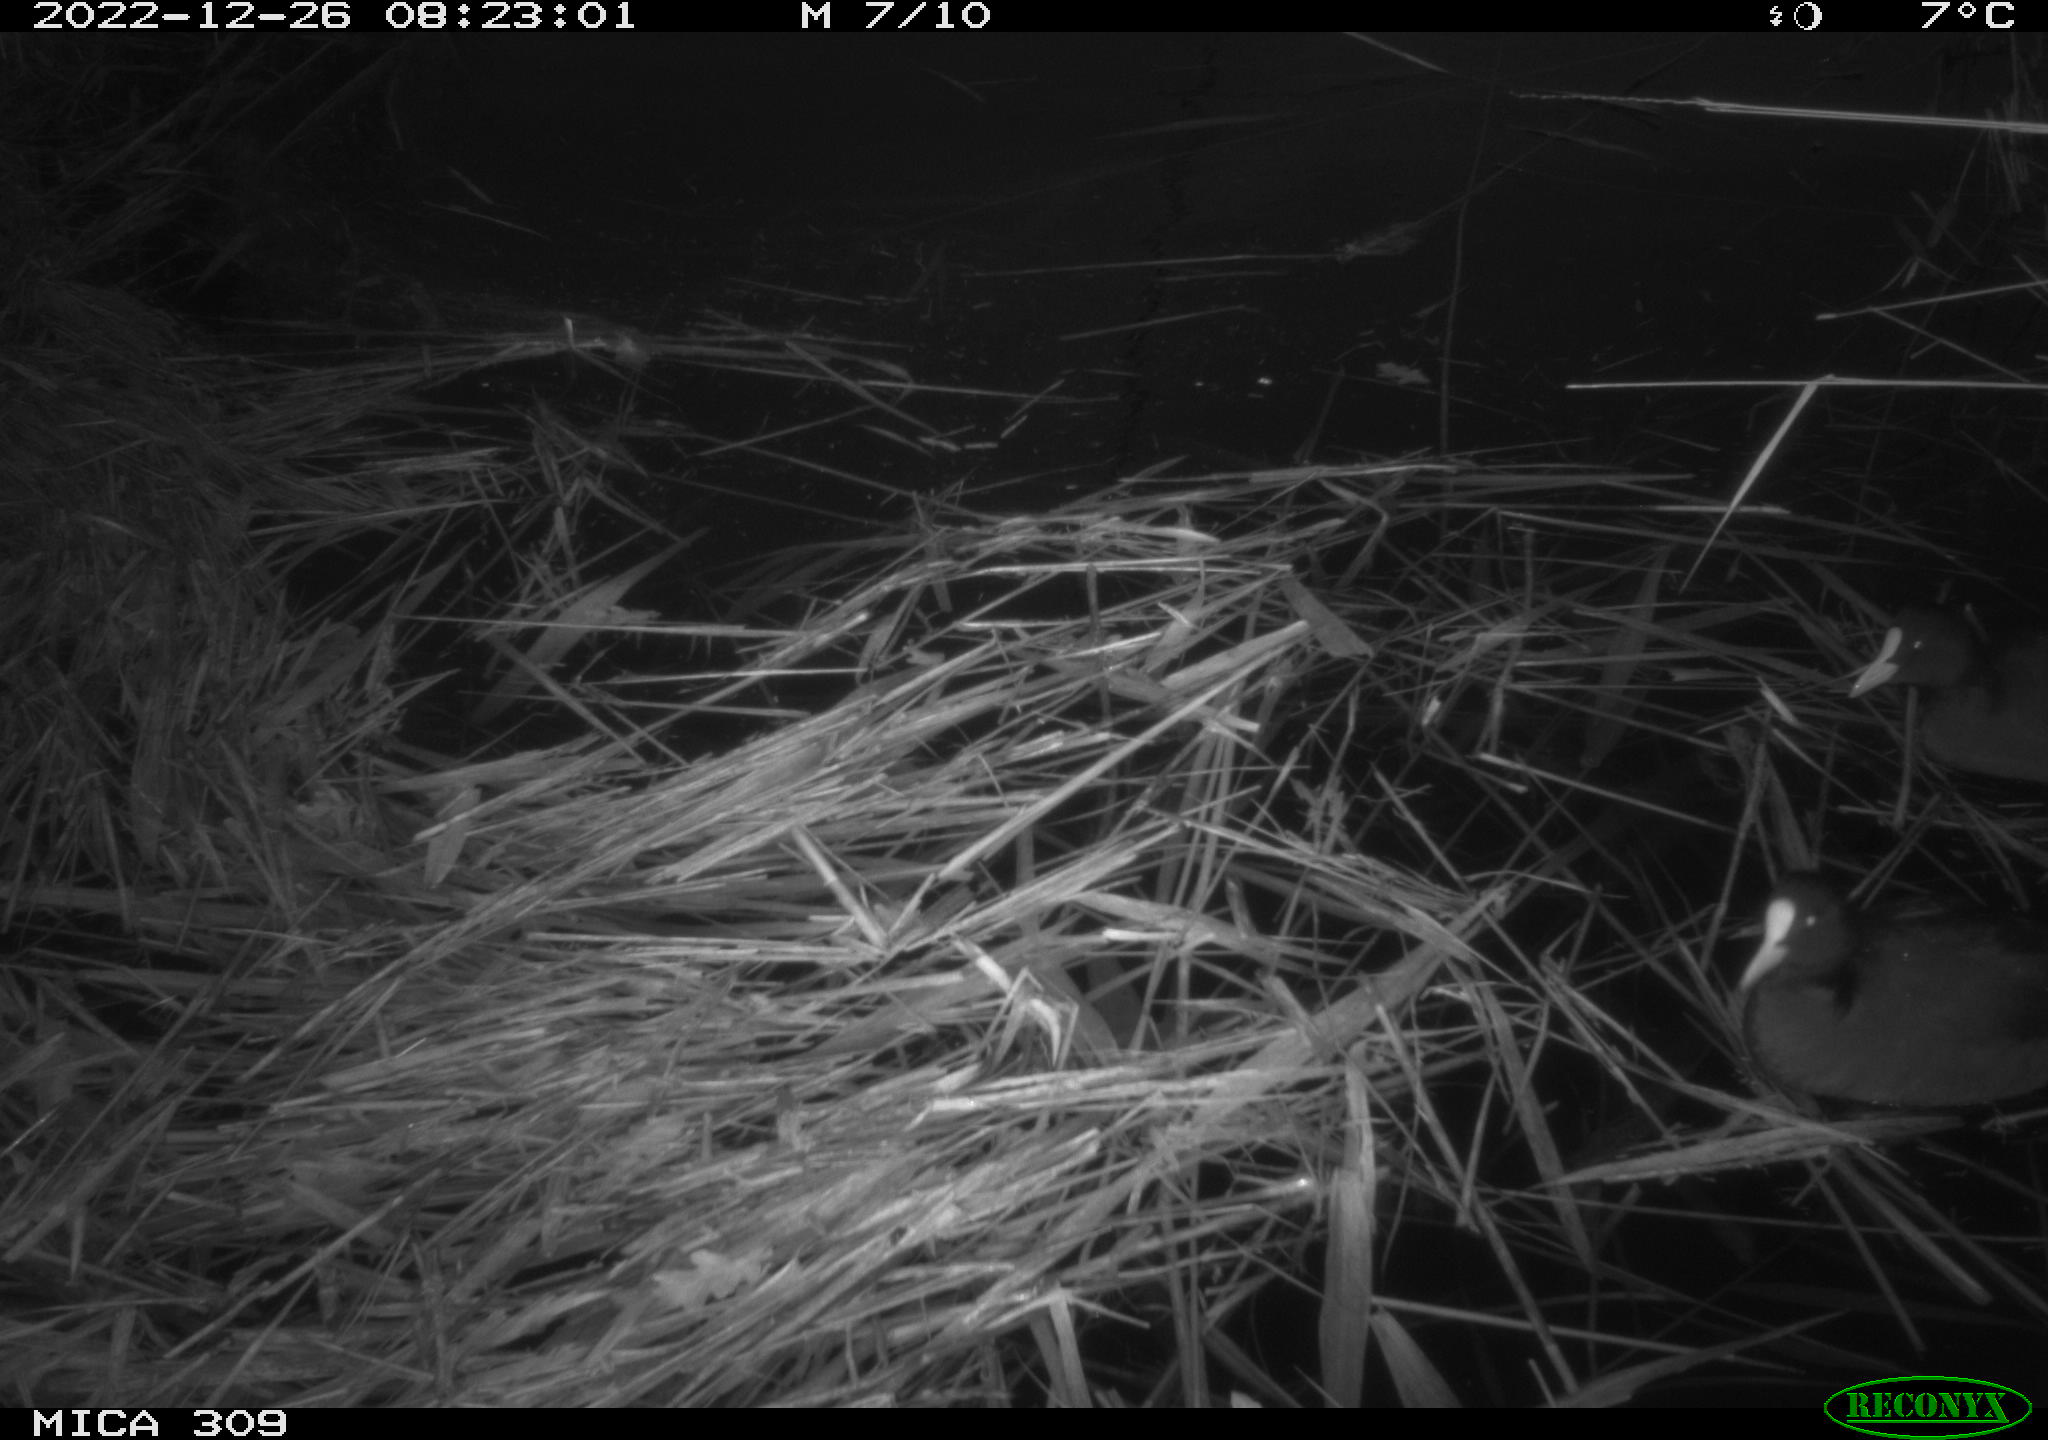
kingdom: Animalia
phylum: Chordata
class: Mammalia
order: Rodentia
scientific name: Rodentia
